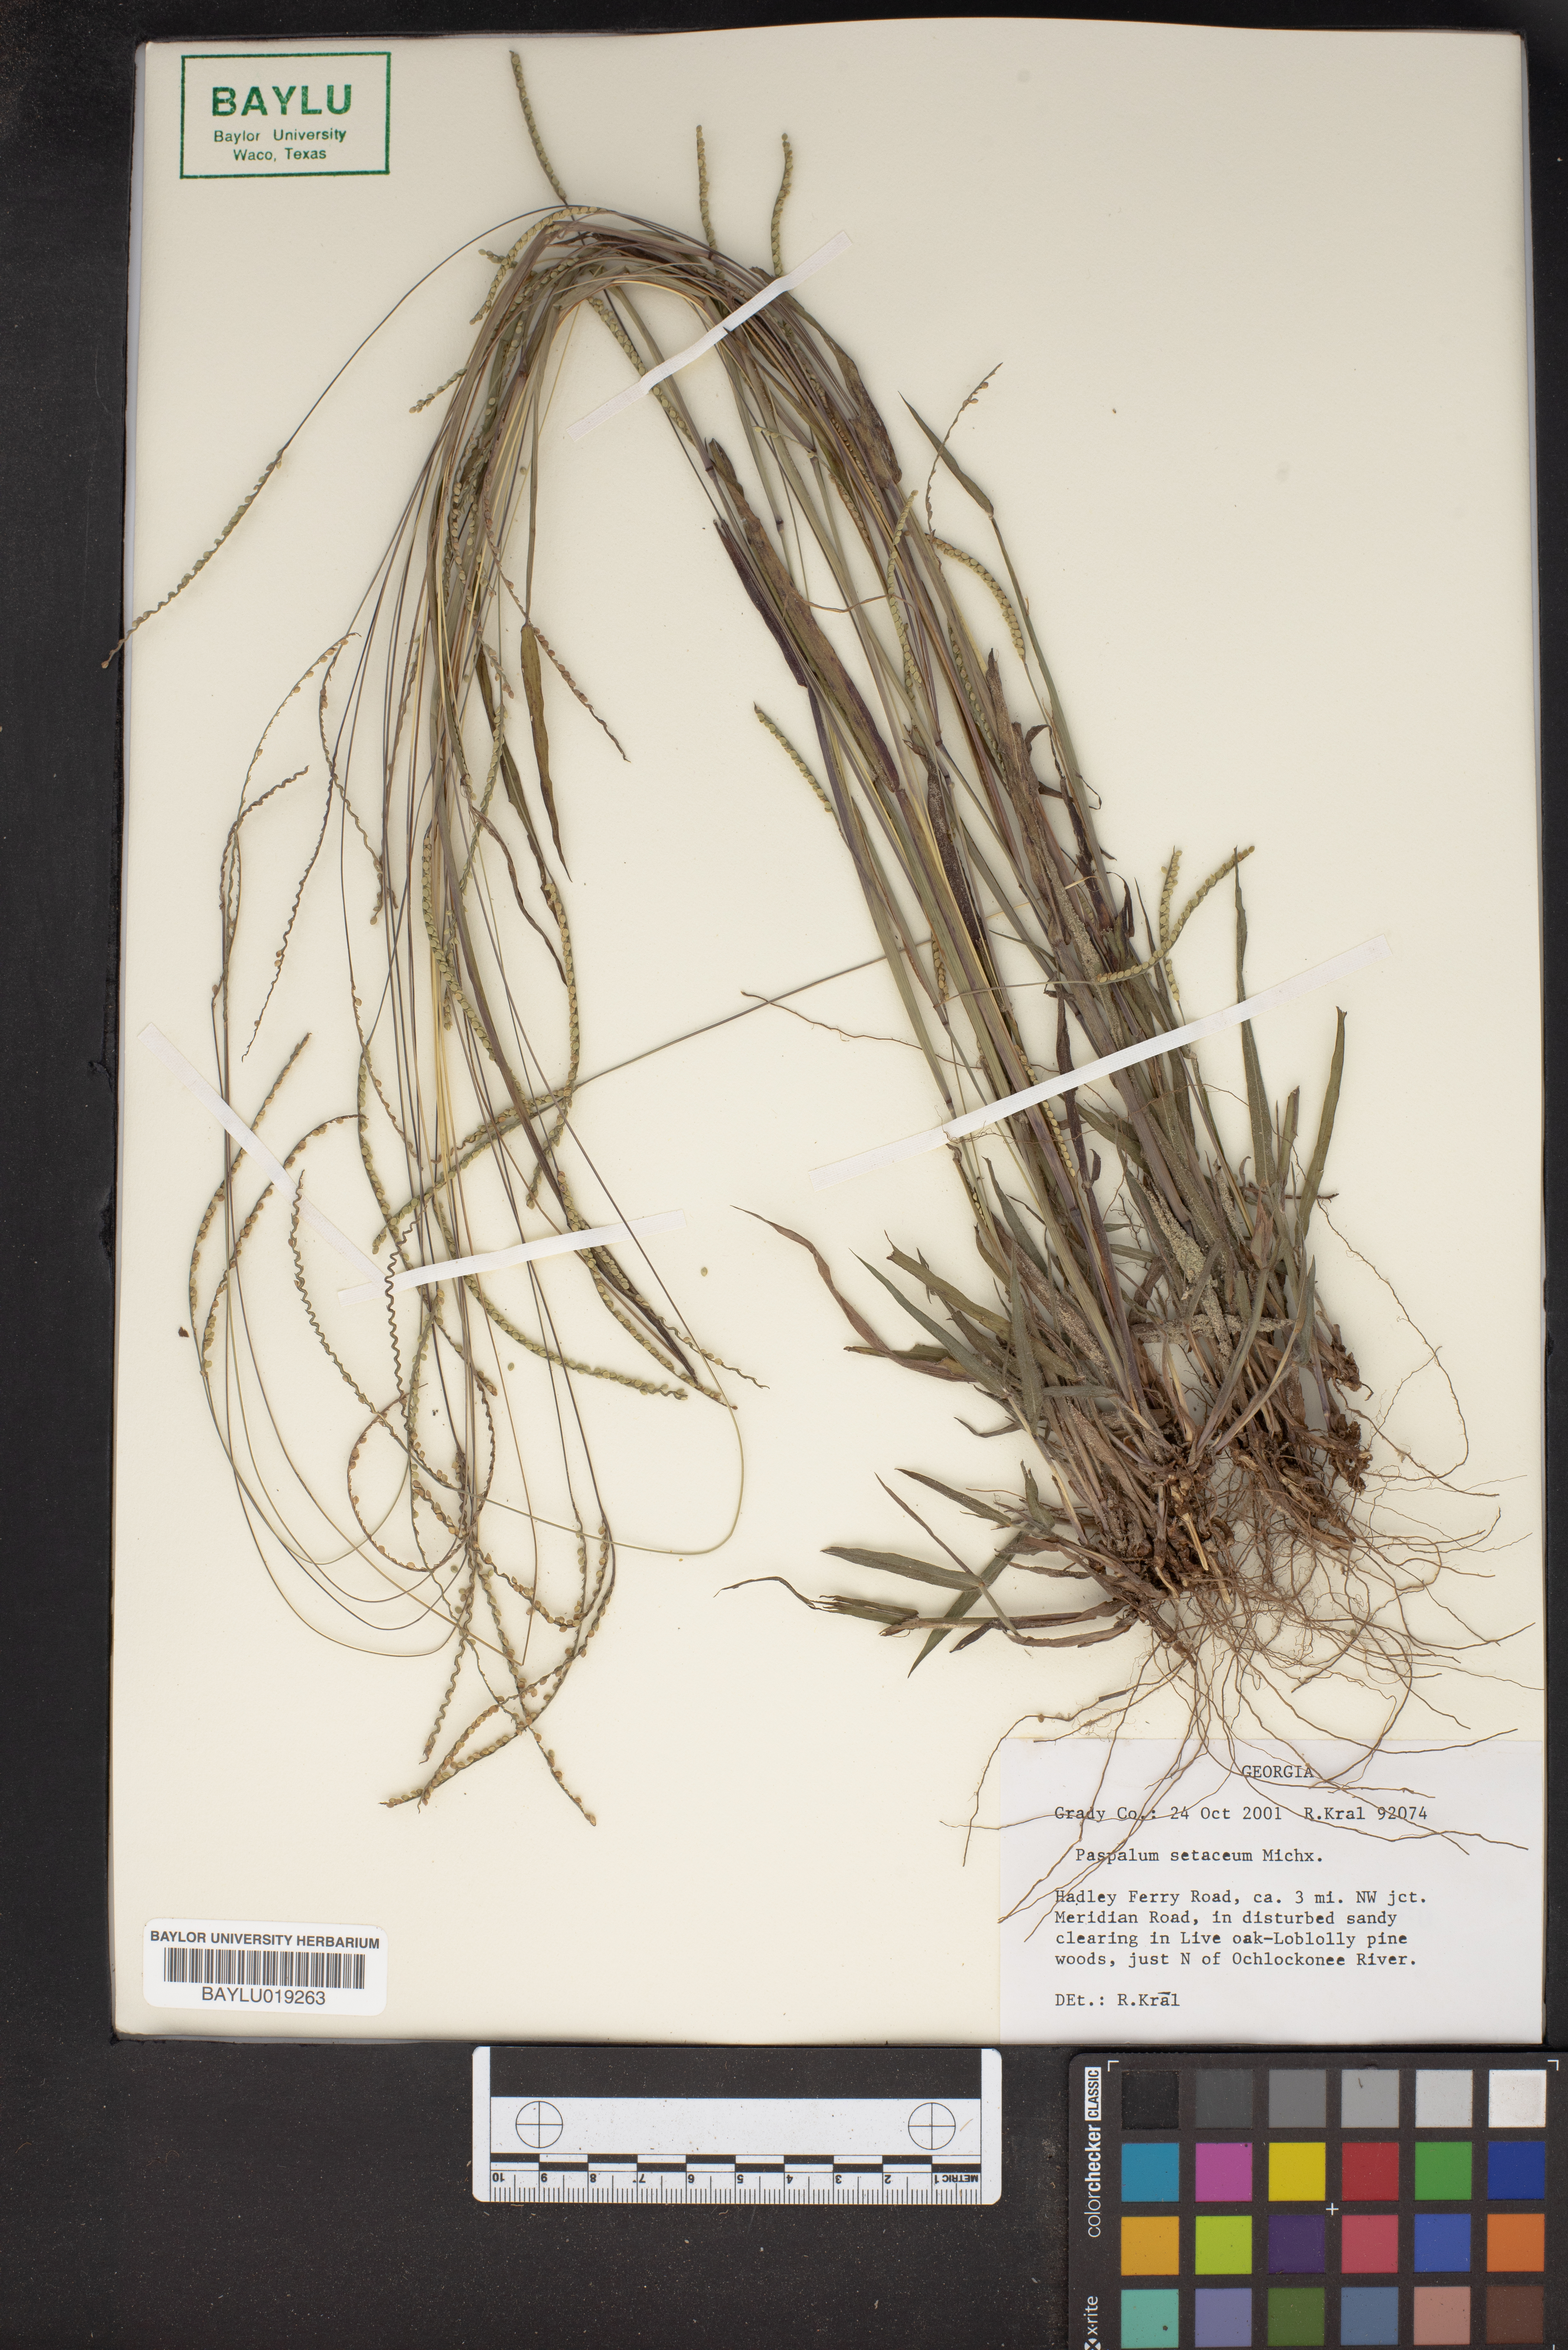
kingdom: Plantae
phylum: Tracheophyta
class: Liliopsida
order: Poales
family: Poaceae
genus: Paspalum
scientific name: Paspalum setaceum
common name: Slender paspalum
